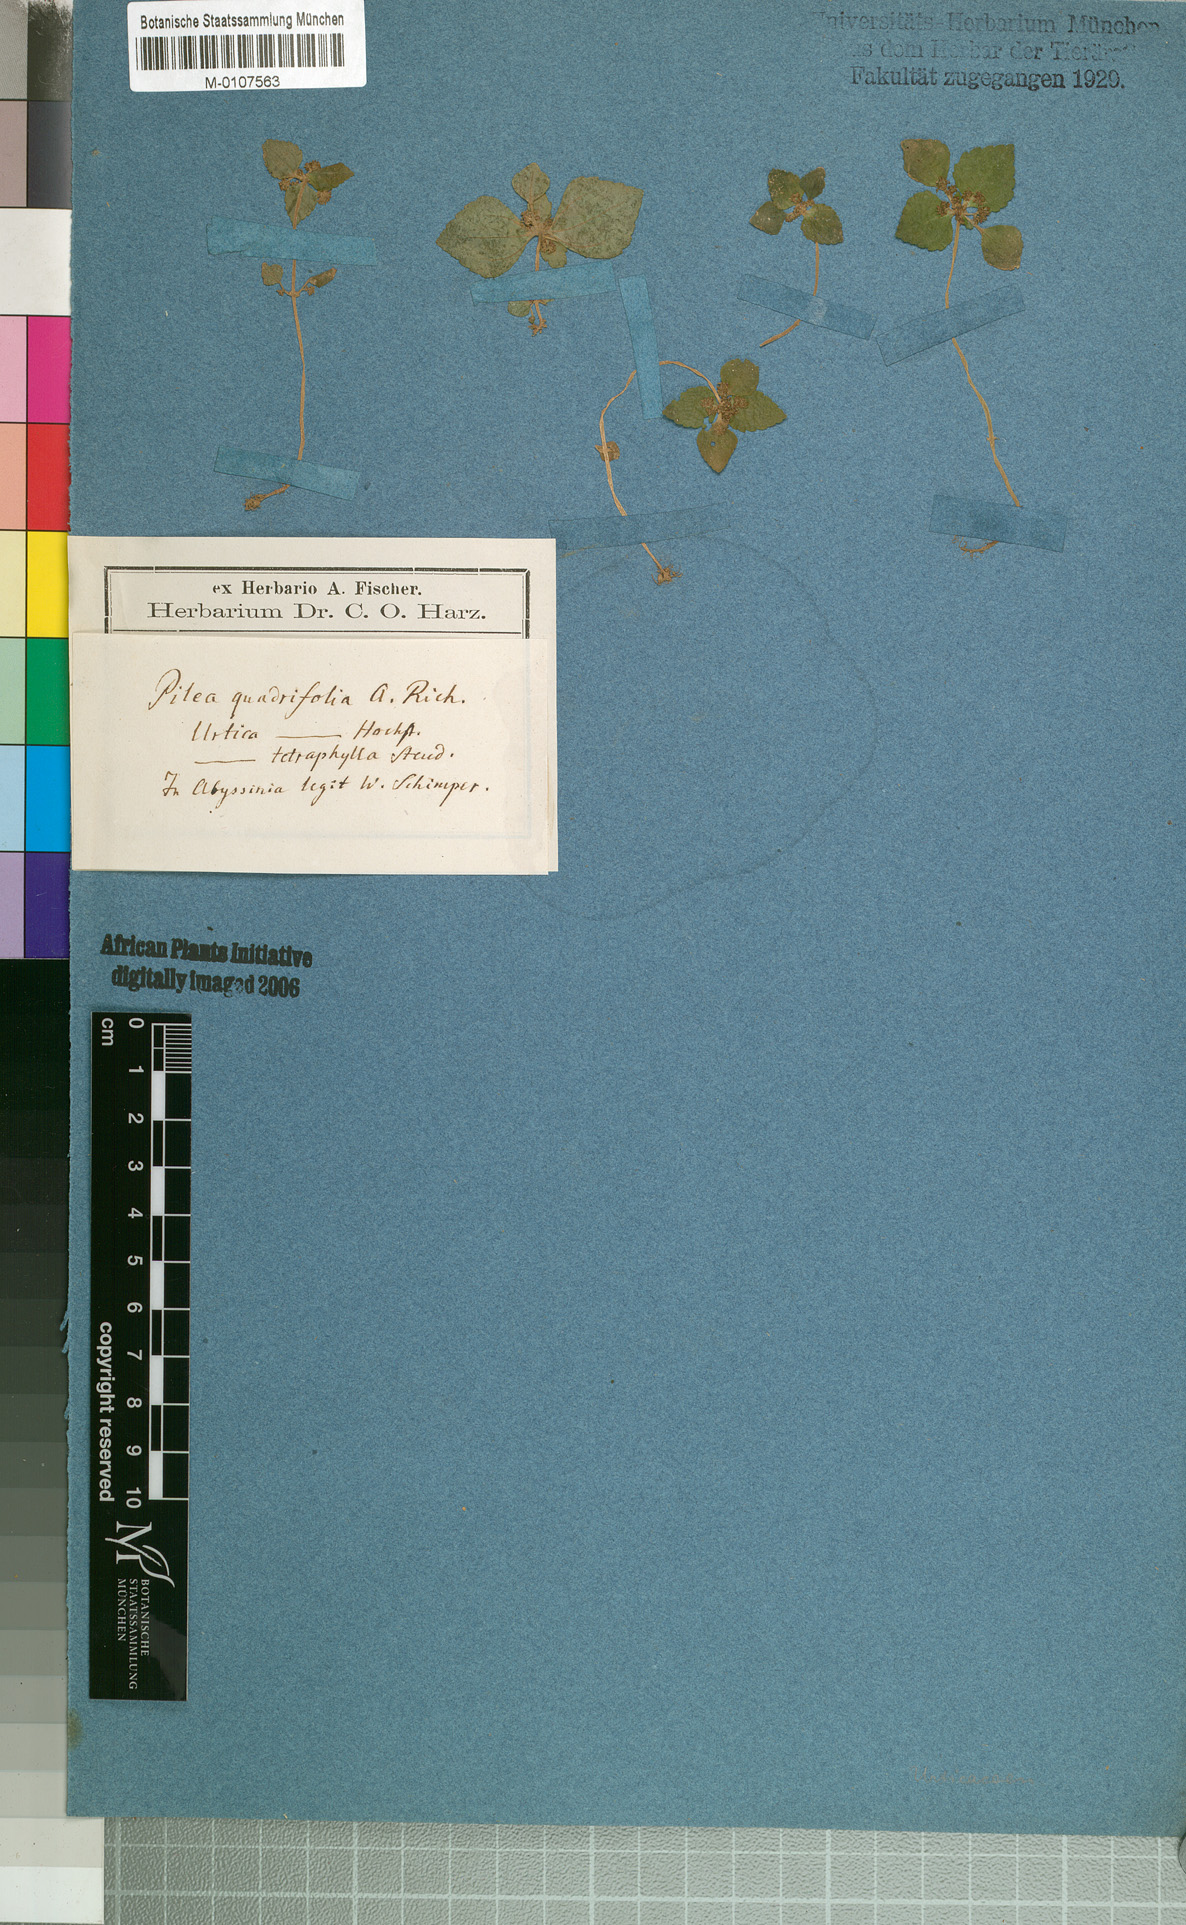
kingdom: Plantae
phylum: Tracheophyta
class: Magnoliopsida
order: Rosales
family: Urticaceae
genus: Pilea
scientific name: Pilea tetraphylla
